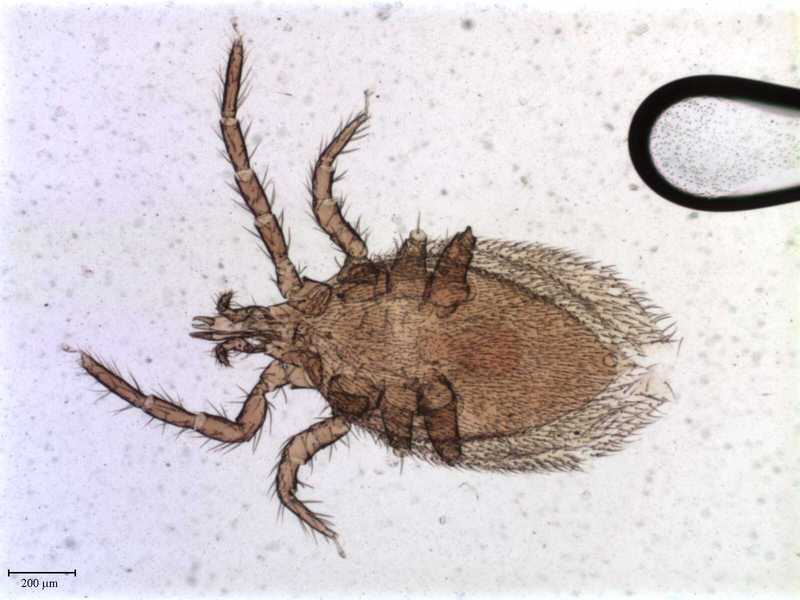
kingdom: Animalia
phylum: Arthropoda
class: Arachnida
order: Mesostigmata
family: Parasitidae
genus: Haemogamasus
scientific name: Haemogamasus mandshuricus
